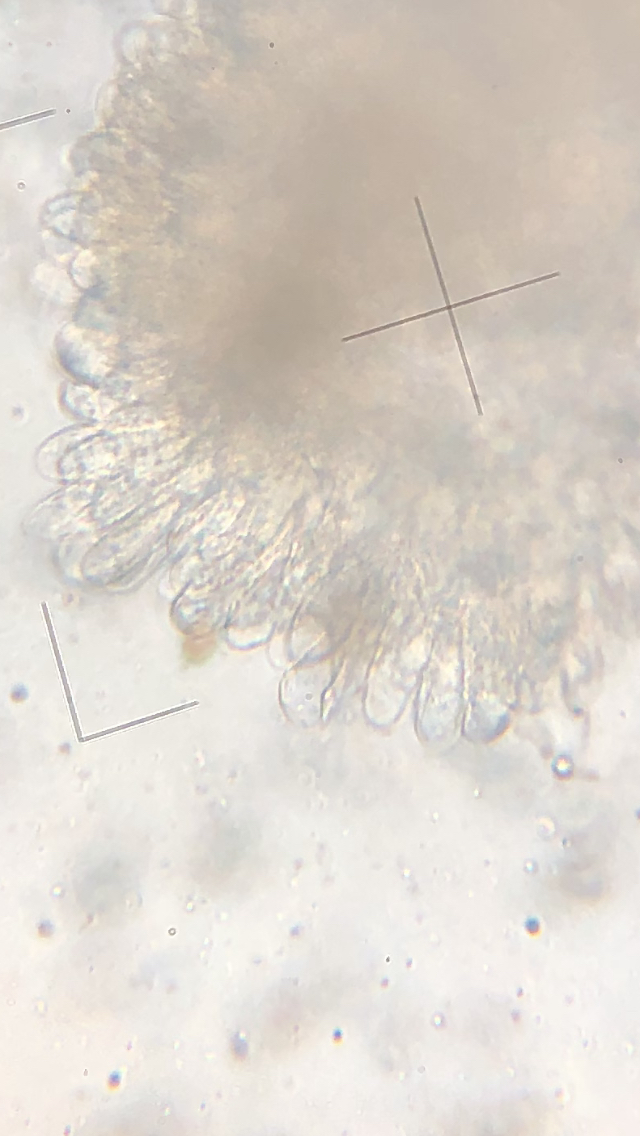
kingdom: Fungi
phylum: Basidiomycota
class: Agaricomycetes
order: Agaricales
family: Inocybaceae
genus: Pseudosperma
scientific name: Pseudosperma
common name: trævlhat
